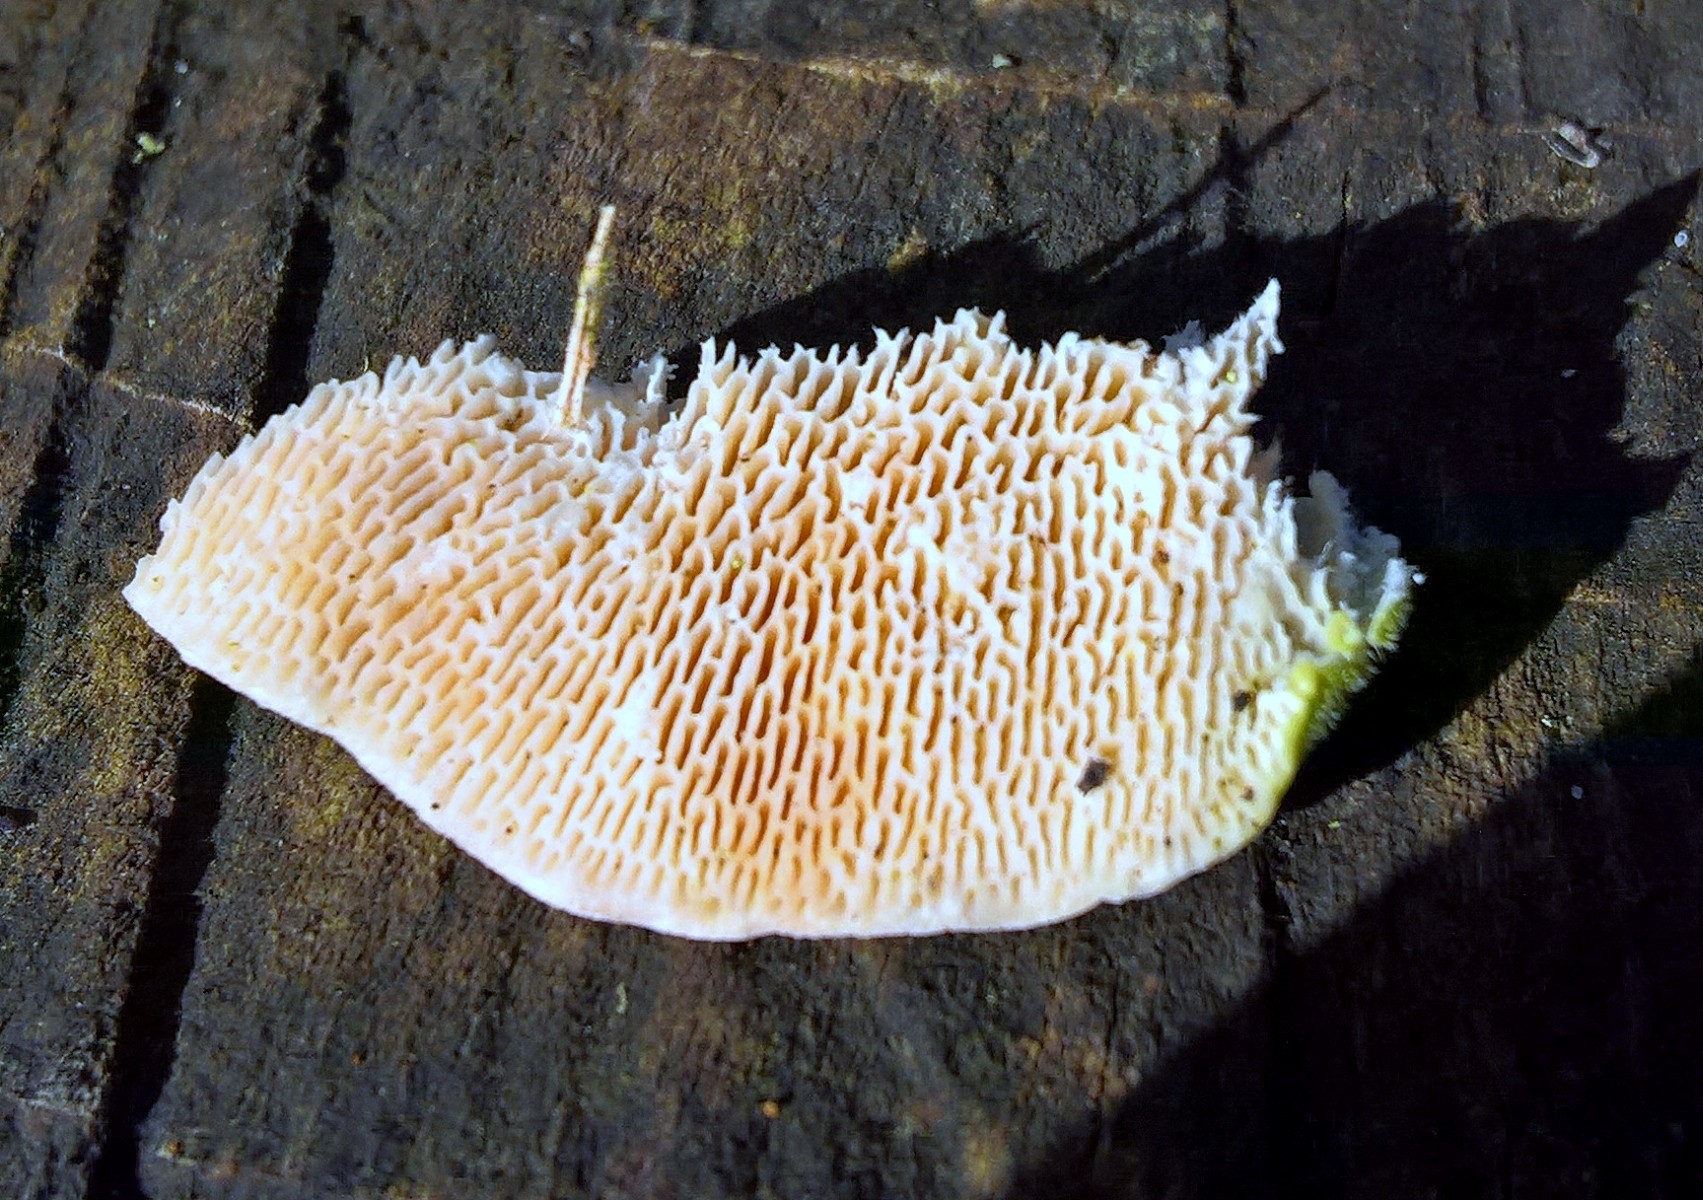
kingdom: Fungi
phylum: Basidiomycota
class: Agaricomycetes
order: Polyporales
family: Polyporaceae
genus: Trametes
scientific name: Trametes gibbosa
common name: puklet læderporesvamp
